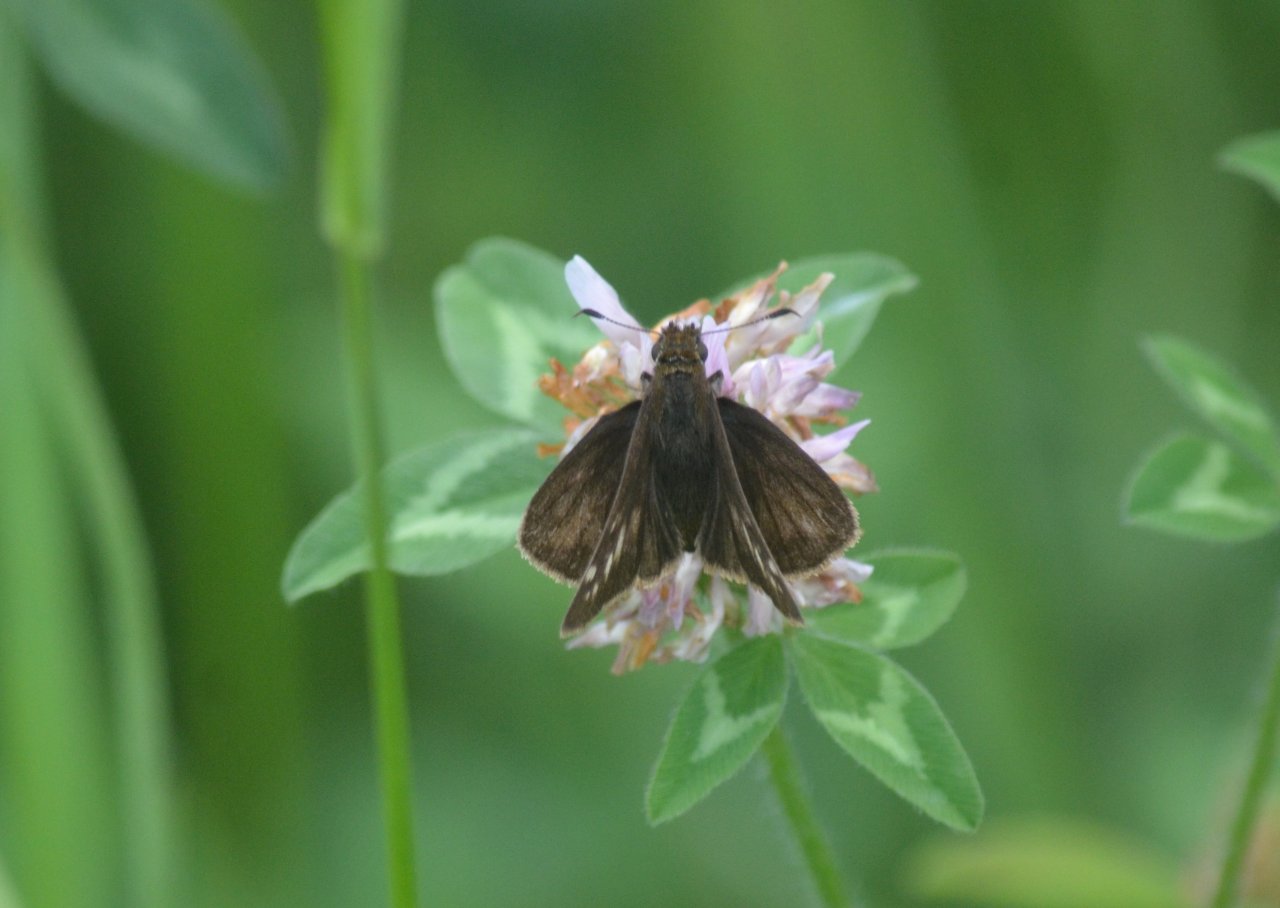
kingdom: Animalia
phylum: Arthropoda
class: Insecta
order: Lepidoptera
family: Hesperiidae
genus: Lon
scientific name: Lon hobomok
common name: Hobomok Skipper
